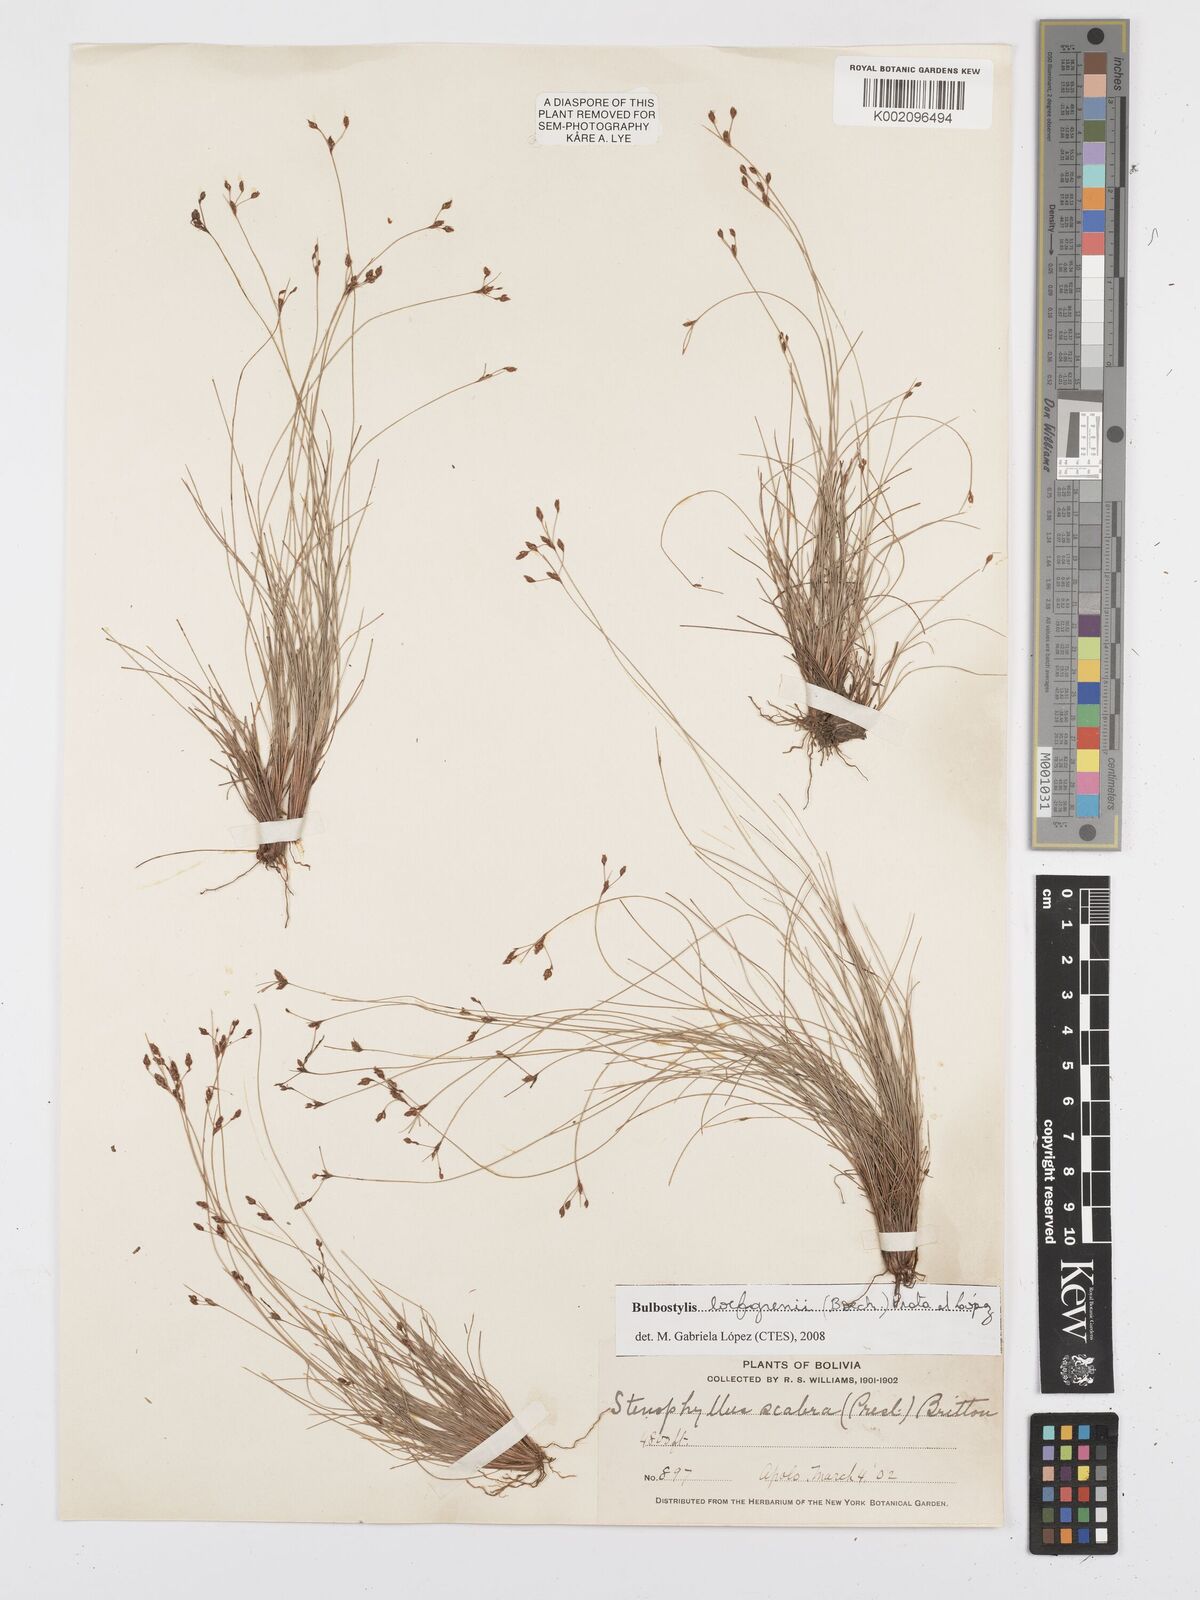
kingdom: Plantae
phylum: Tracheophyta
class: Liliopsida
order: Poales
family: Cyperaceae
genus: Bulbostylis
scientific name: Bulbostylis loefgrenii
